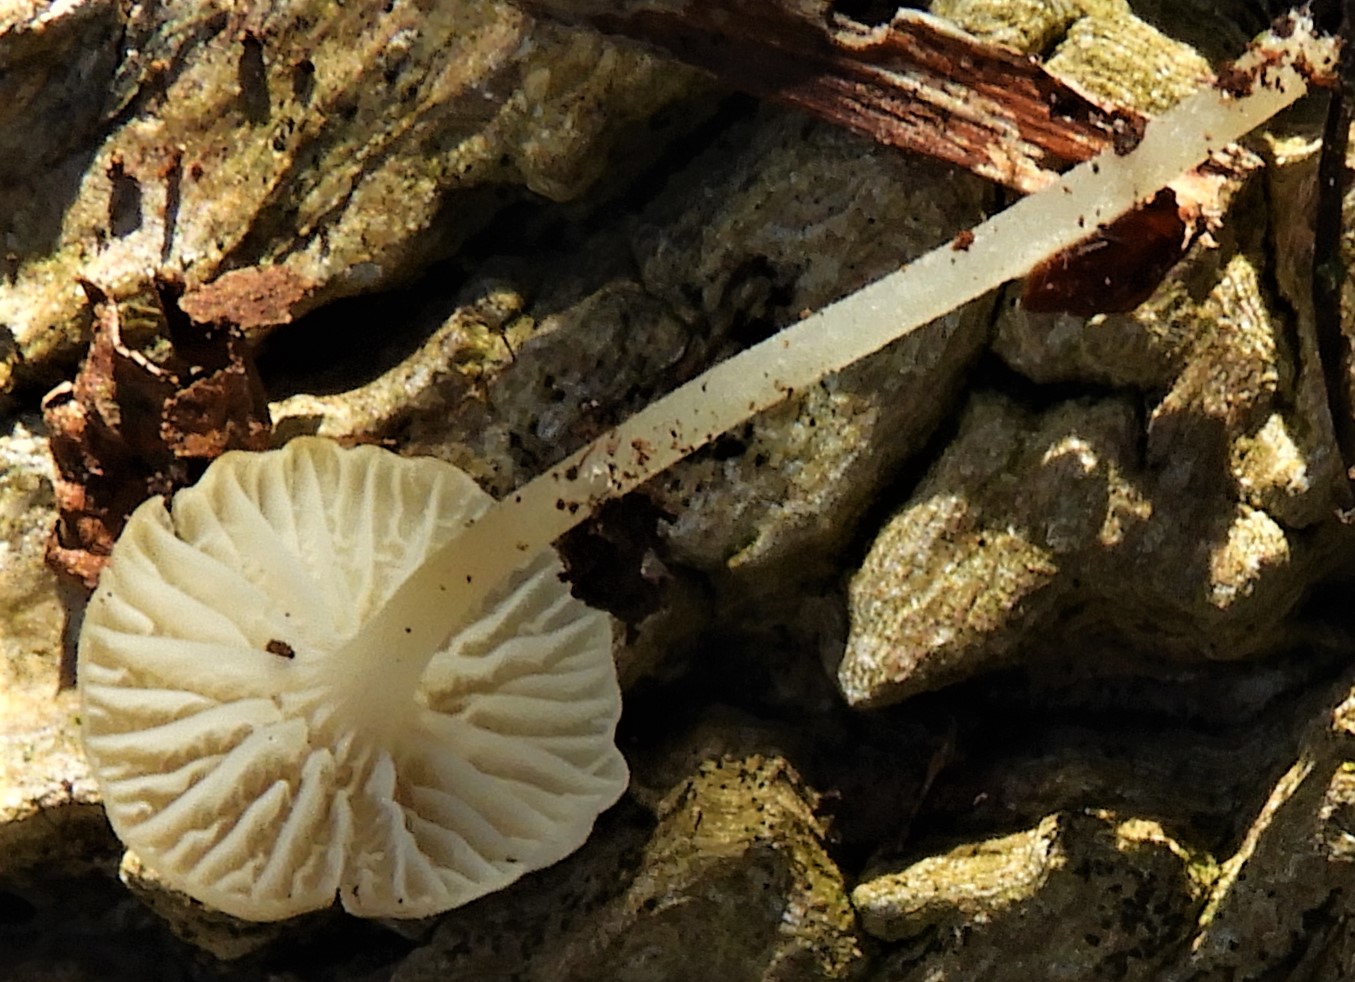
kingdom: Fungi
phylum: Basidiomycota
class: Agaricomycetes
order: Agaricales
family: Porotheleaceae
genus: Phloeomana
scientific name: Phloeomana speirea
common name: kvist-huesvamp
